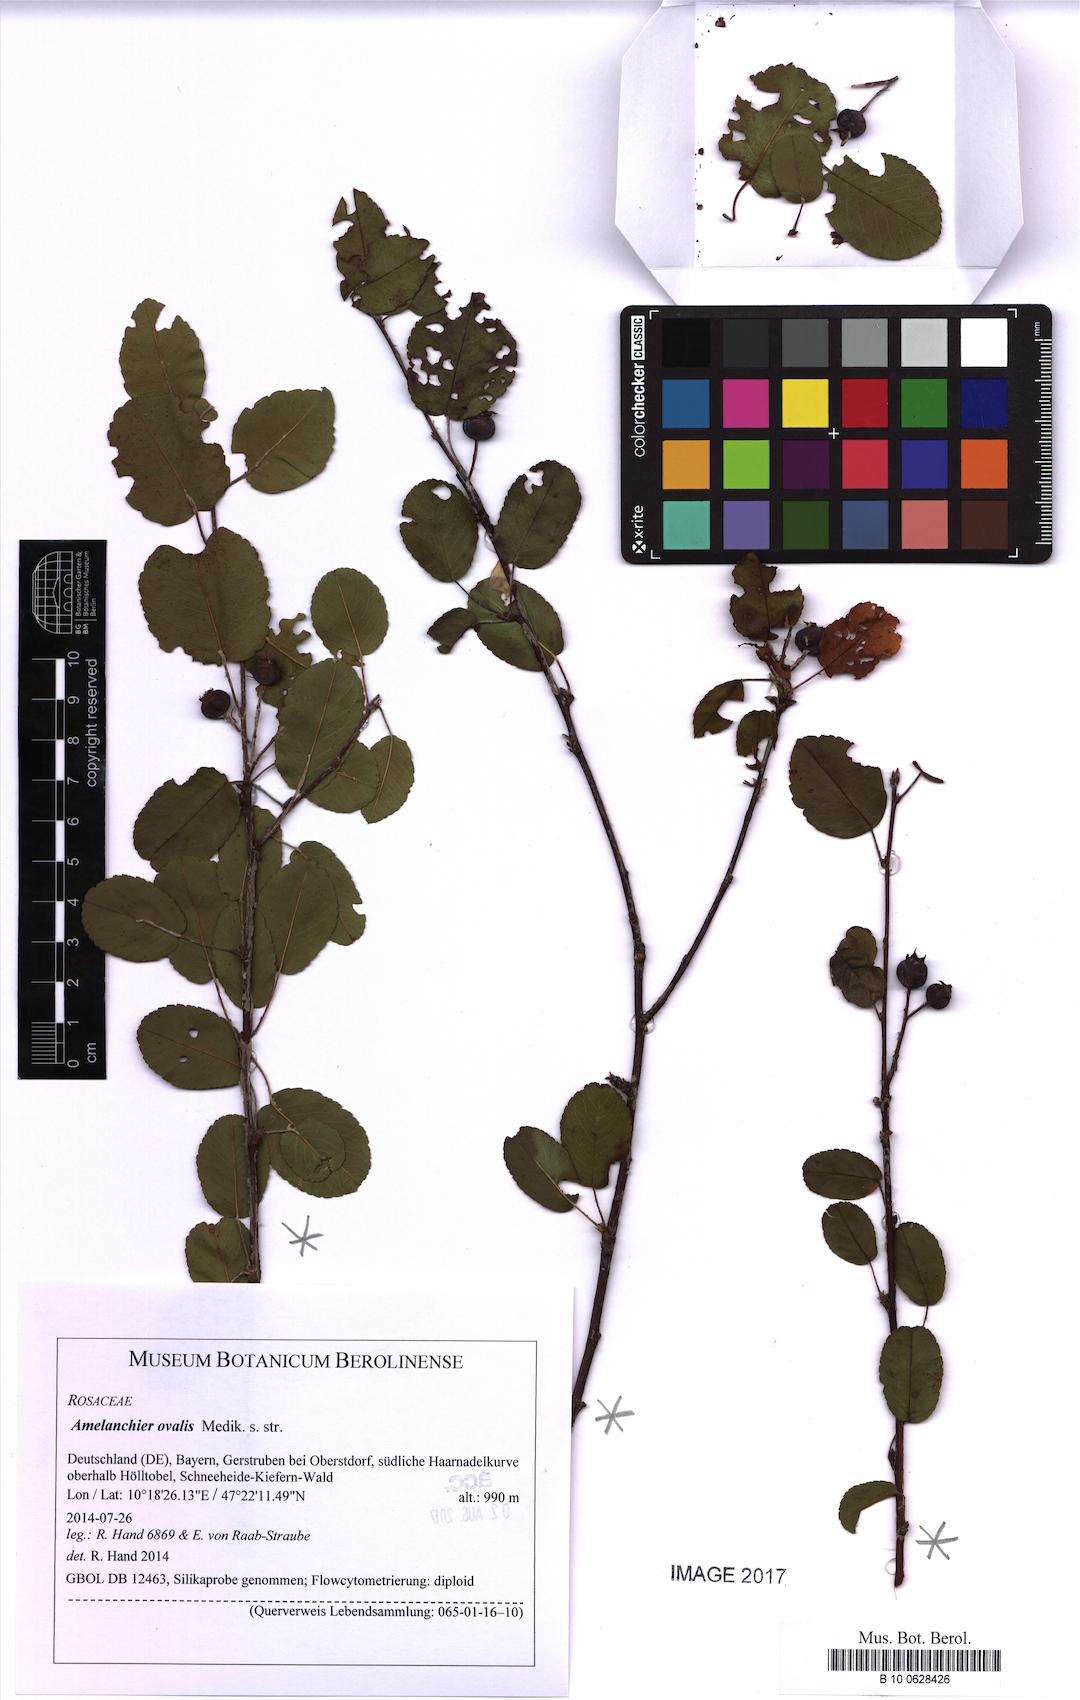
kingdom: Plantae
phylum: Tracheophyta
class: Magnoliopsida
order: Rosales
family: Rosaceae
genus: Amelanchier
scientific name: Amelanchier ovalis
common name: Serviceberry
